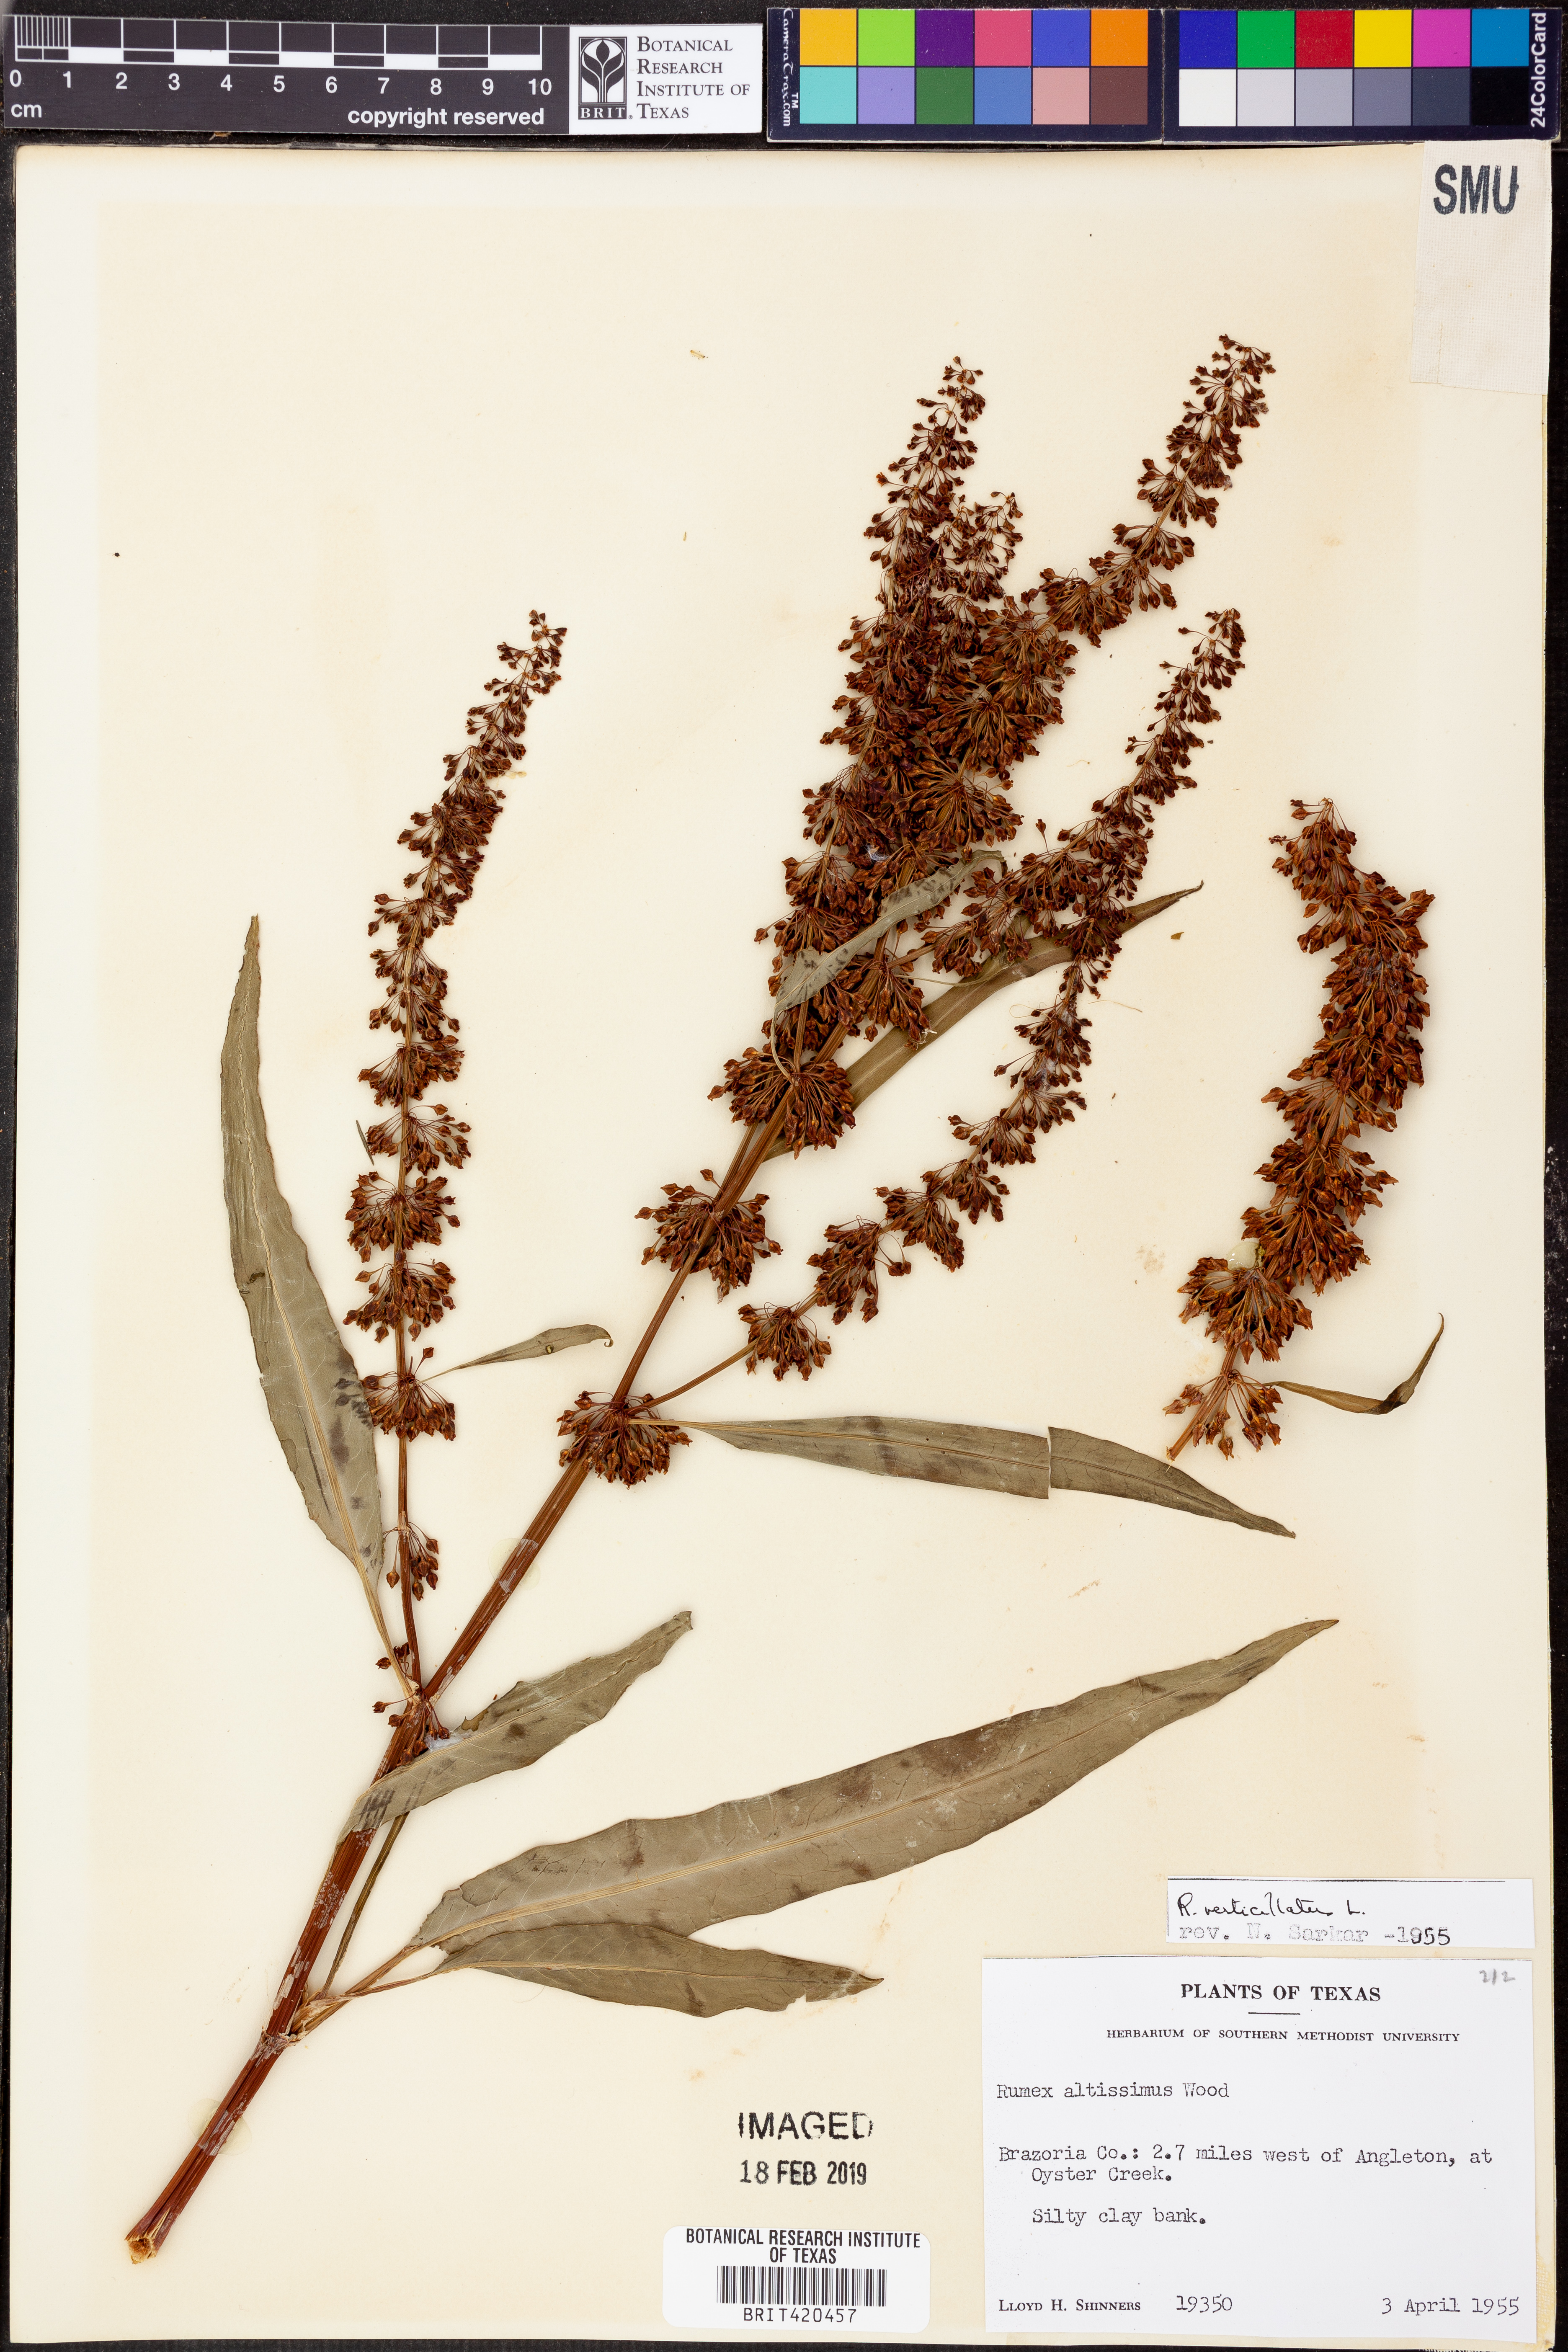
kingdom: Plantae
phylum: Tracheophyta
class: Magnoliopsida
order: Caryophyllales
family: Polygonaceae
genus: Rumex
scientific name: Rumex verticillatus
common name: Swamp dock
